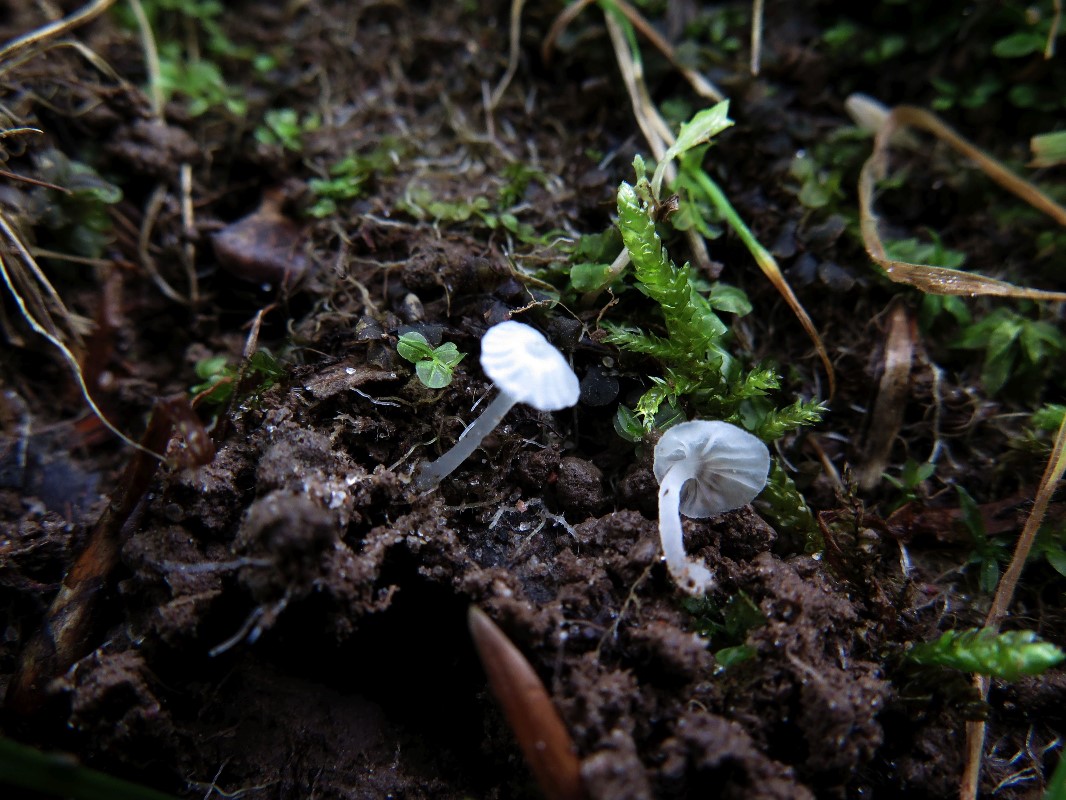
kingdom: Fungi
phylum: Basidiomycota
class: Agaricomycetes
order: Agaricales
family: Tricholomataceae
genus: Delicatula
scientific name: Delicatula integrella
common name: slørhuesvamp
